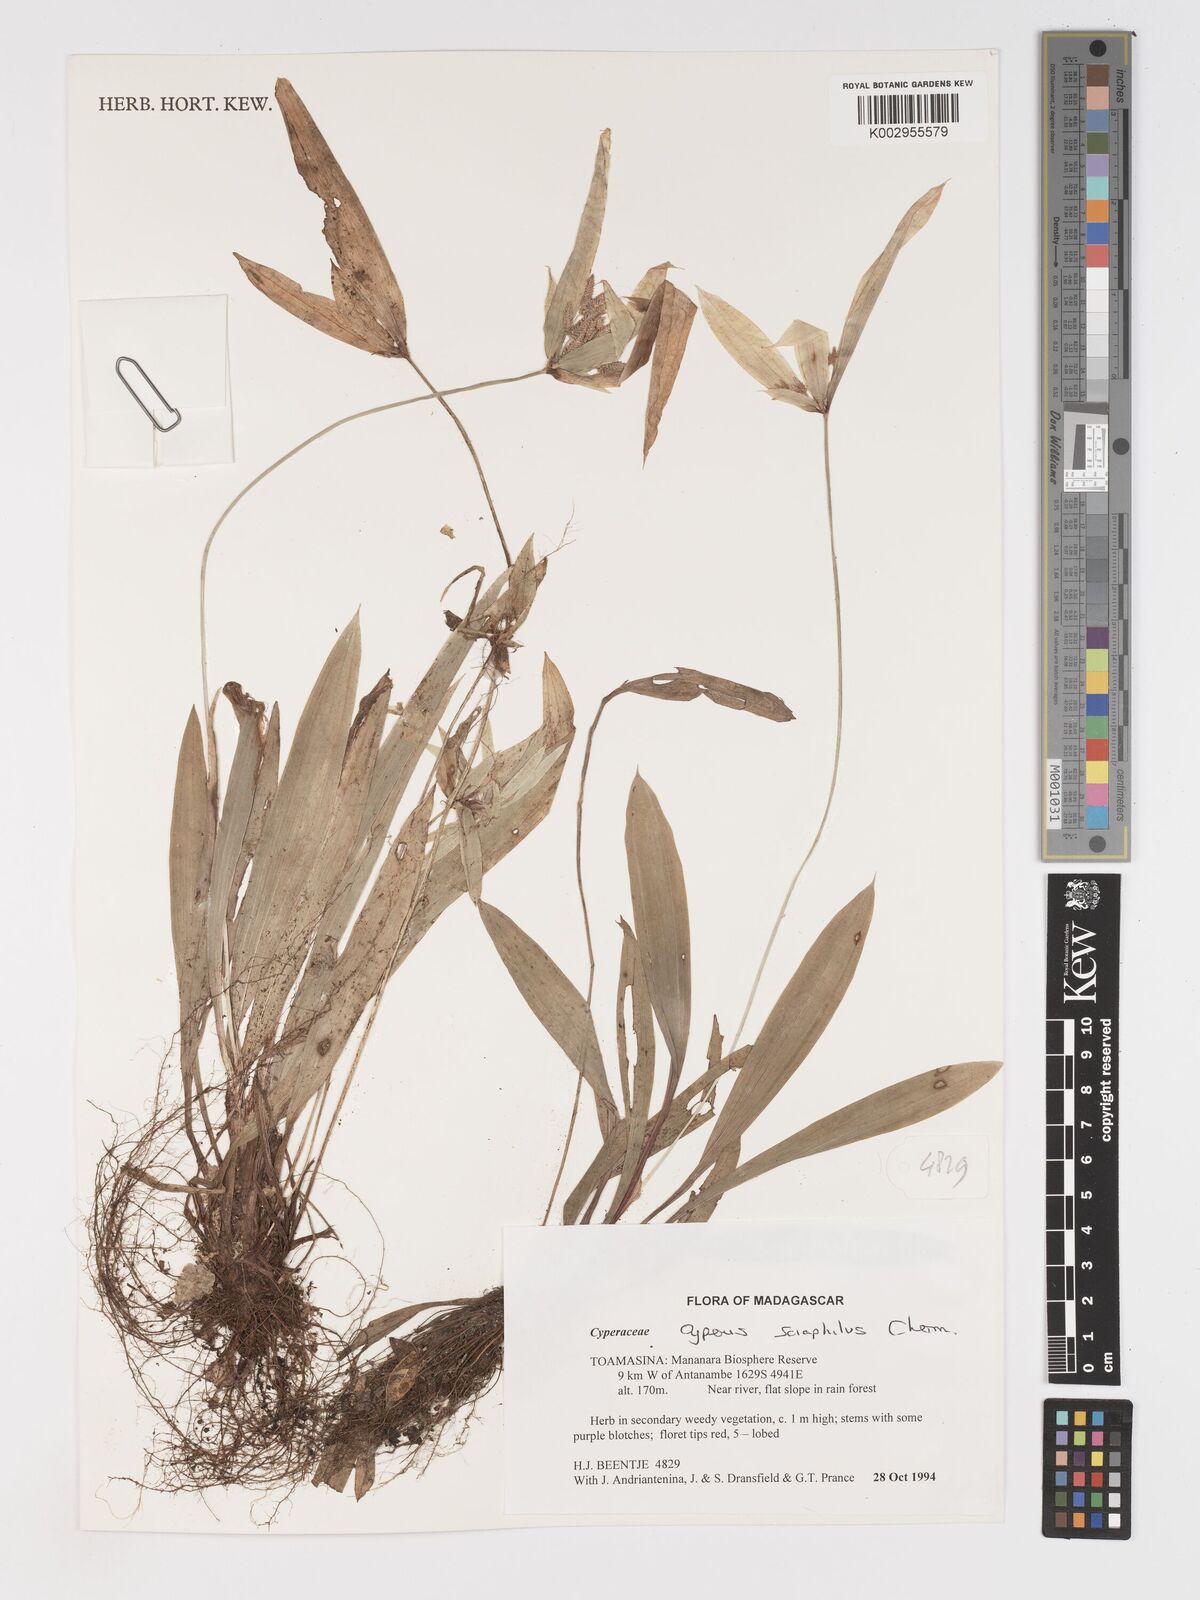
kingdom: Plantae
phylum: Tracheophyta
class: Liliopsida
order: Poales
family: Cyperaceae
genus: Cyperus
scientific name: Cyperus sciaphilus
